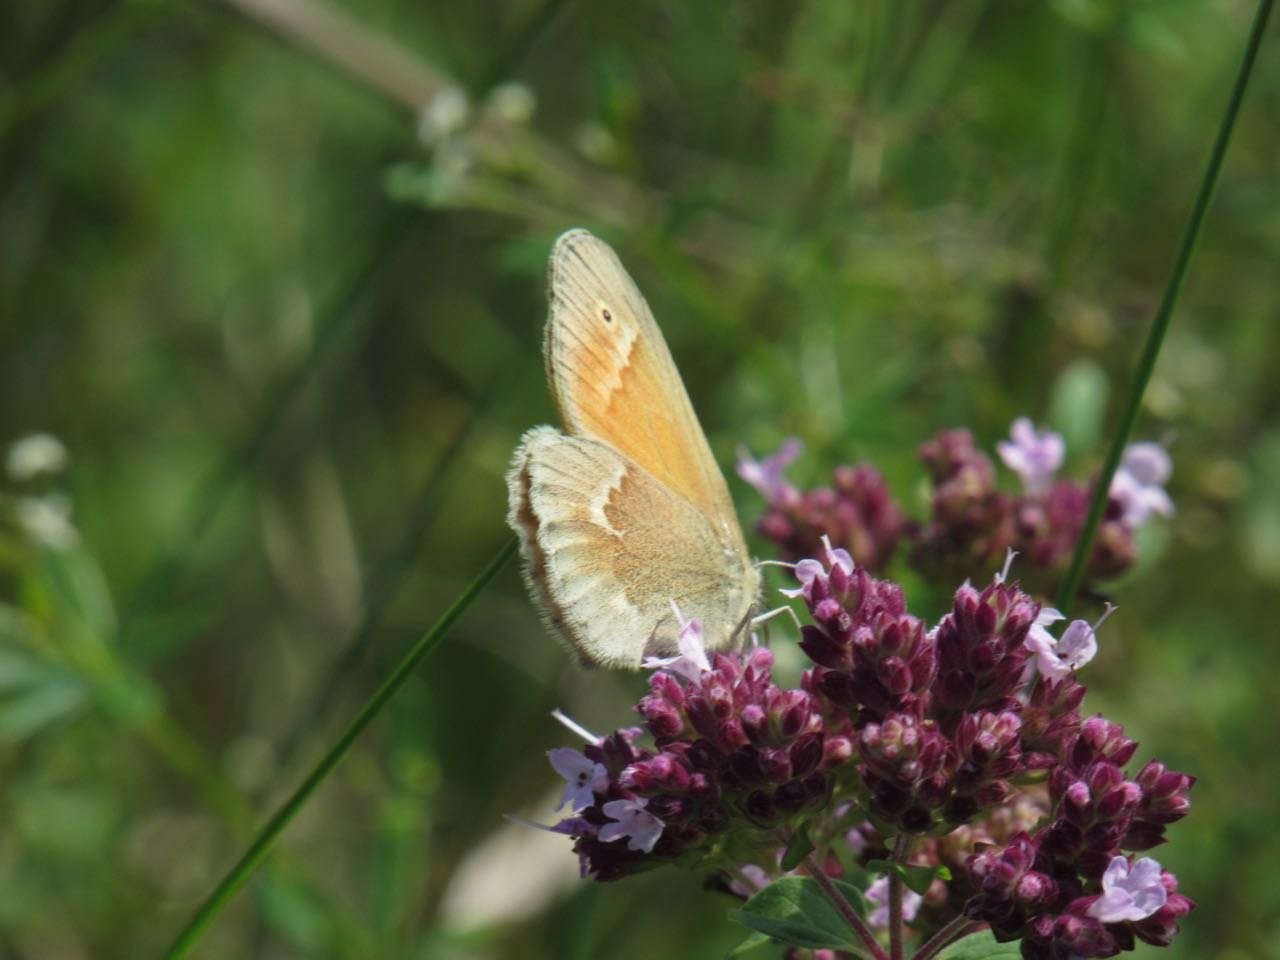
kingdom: Animalia
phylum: Arthropoda
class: Insecta
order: Lepidoptera
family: Nymphalidae
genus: Coenonympha
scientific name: Coenonympha tullia
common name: Large Heath
